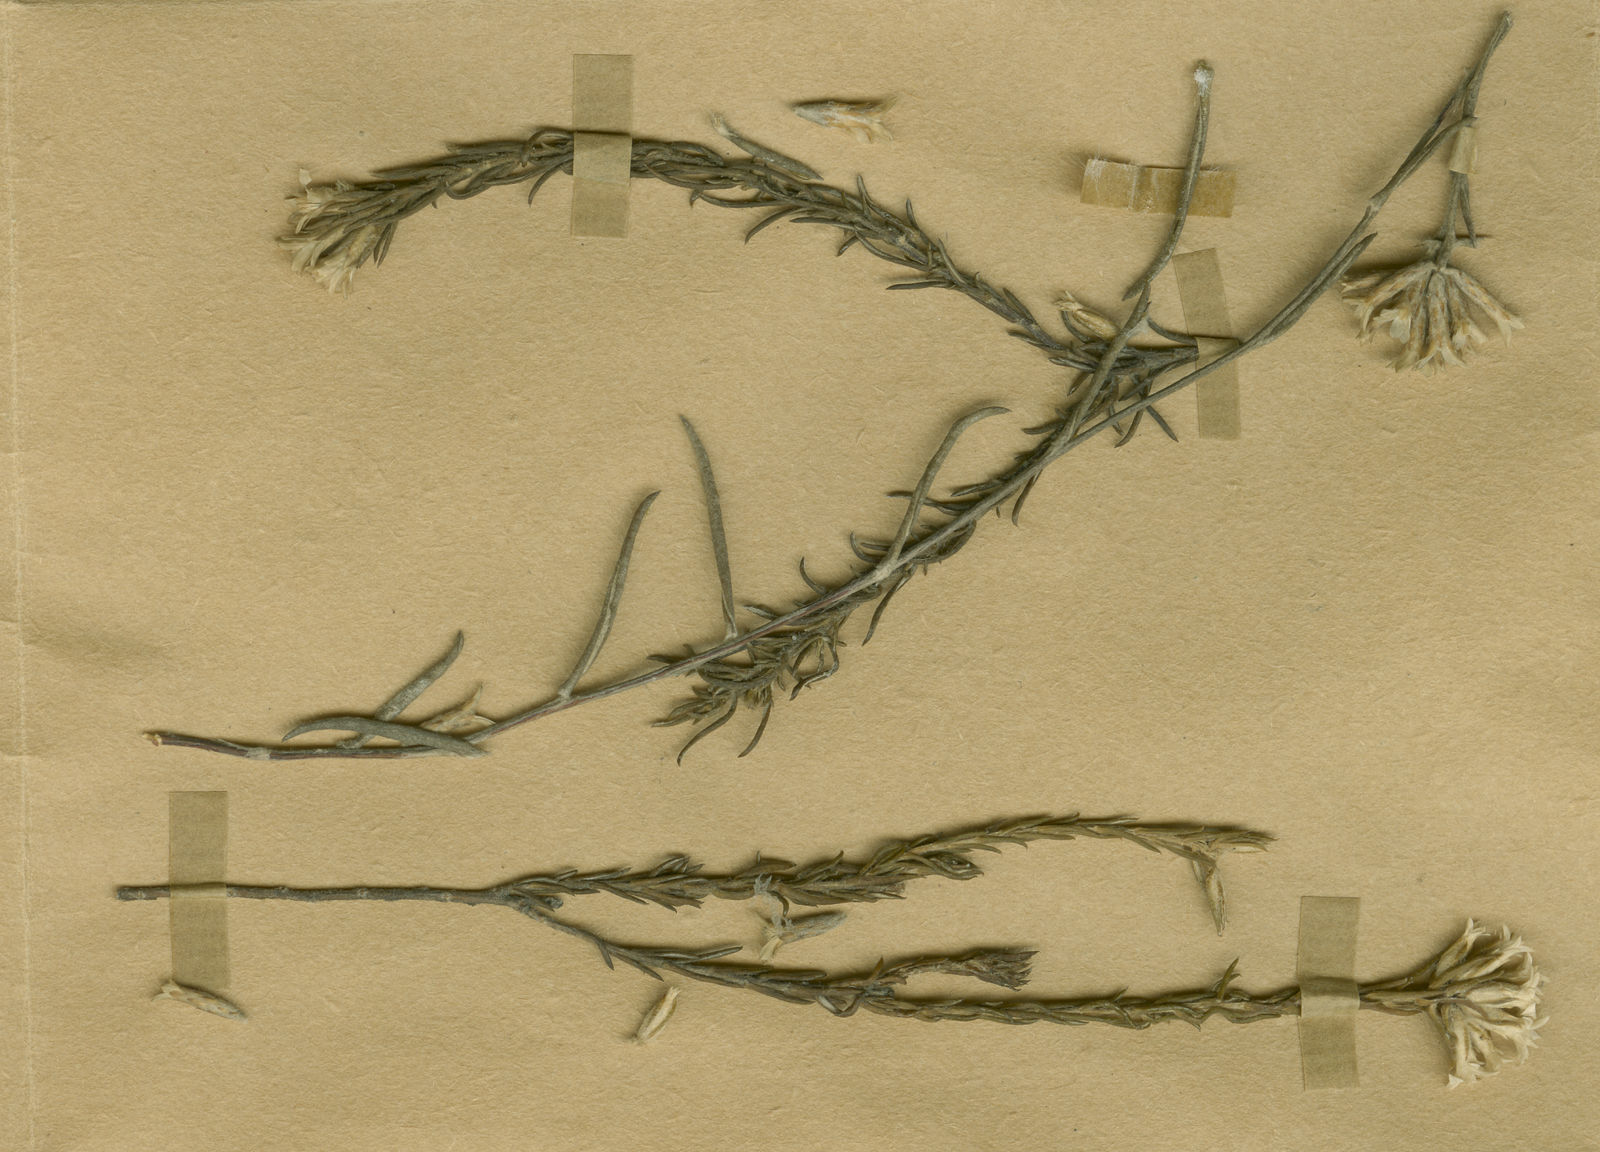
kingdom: Plantae
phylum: Tracheophyta
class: Magnoliopsida
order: Asterales
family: Asteraceae
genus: Metalasia
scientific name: Metalasia quinqueflora
